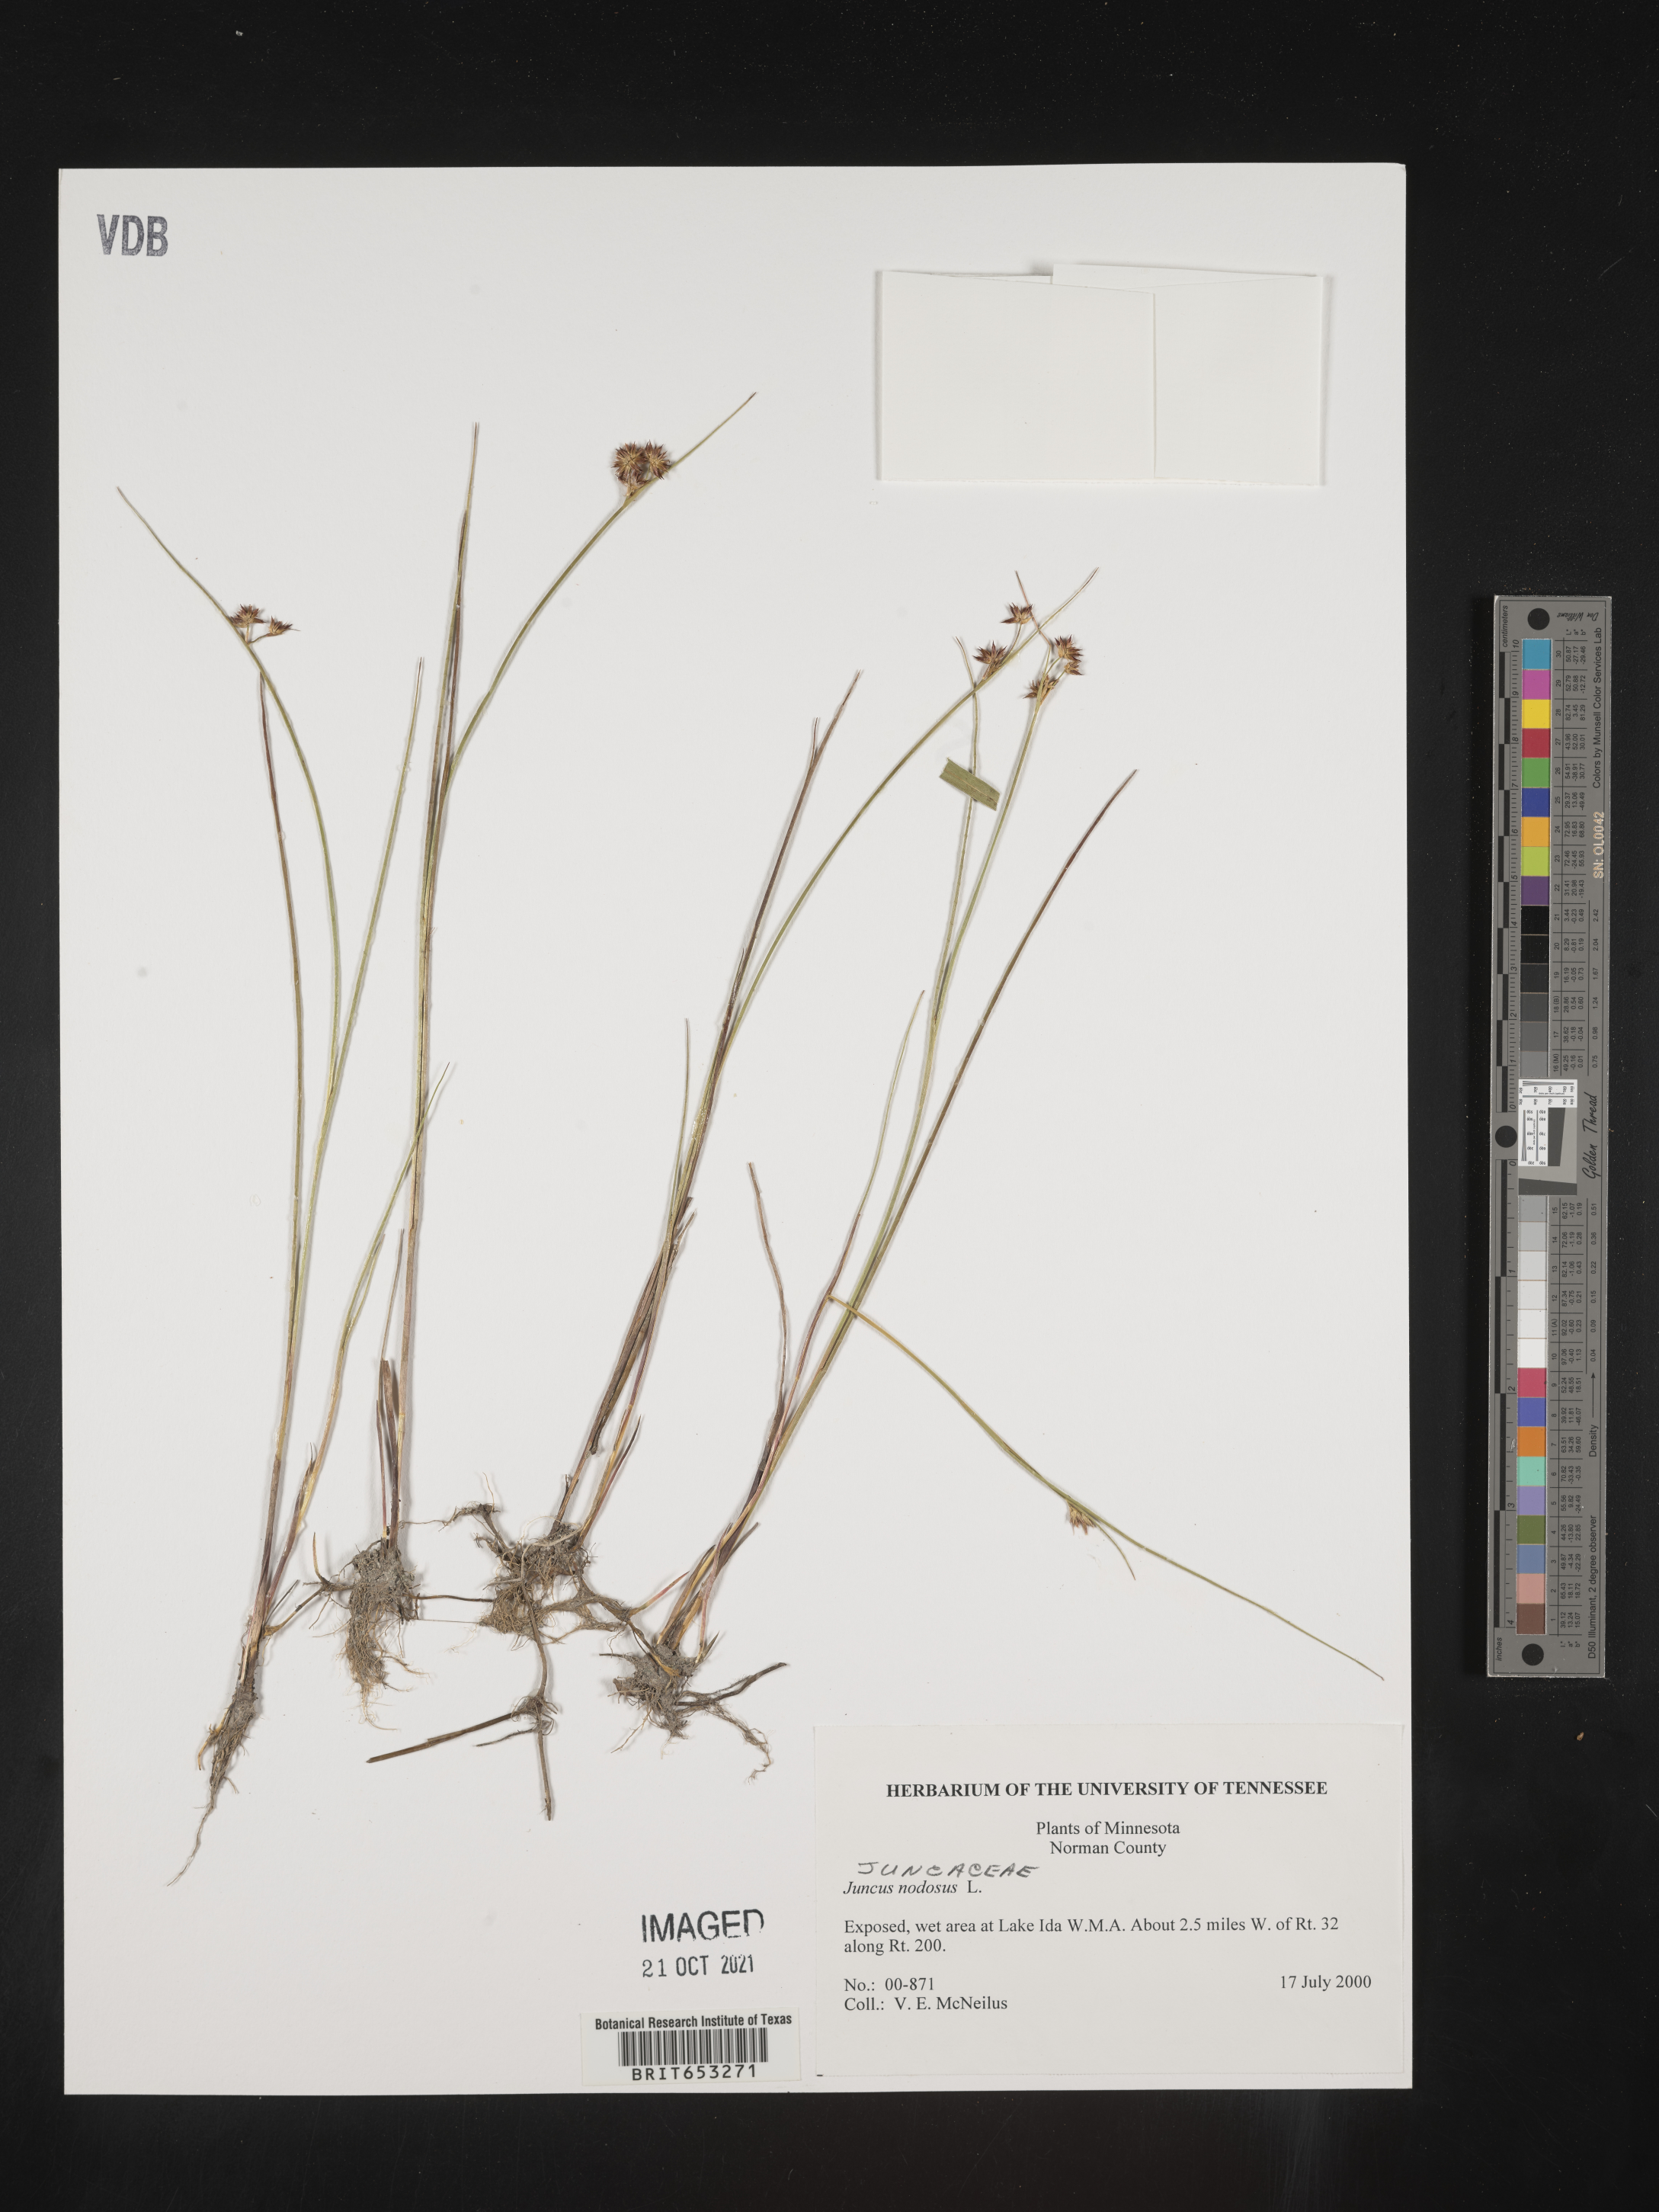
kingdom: Plantae
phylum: Tracheophyta
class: Liliopsida
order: Poales
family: Juncaceae
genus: Juncus
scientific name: Juncus nodosus
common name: Knotted rush
